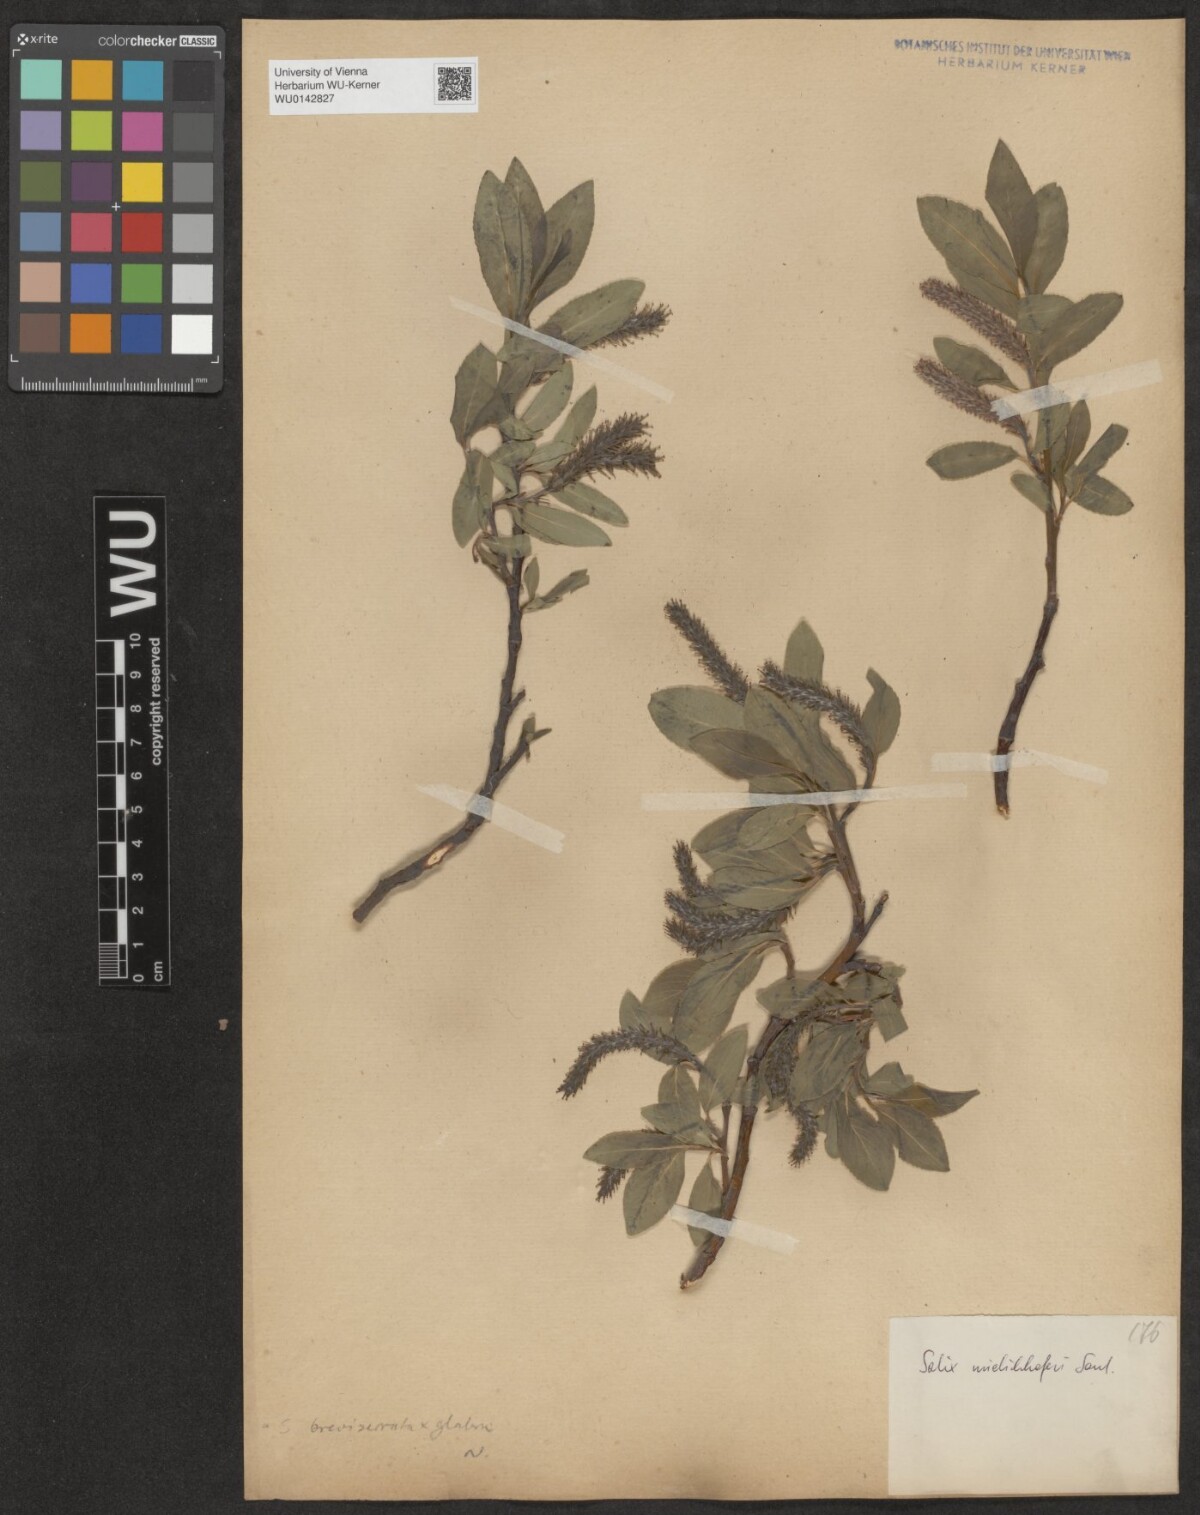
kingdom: Plantae
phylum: Tracheophyta
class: Magnoliopsida
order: Malpighiales
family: Salicaceae
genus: Salix
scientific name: Salix mielichhoferi
